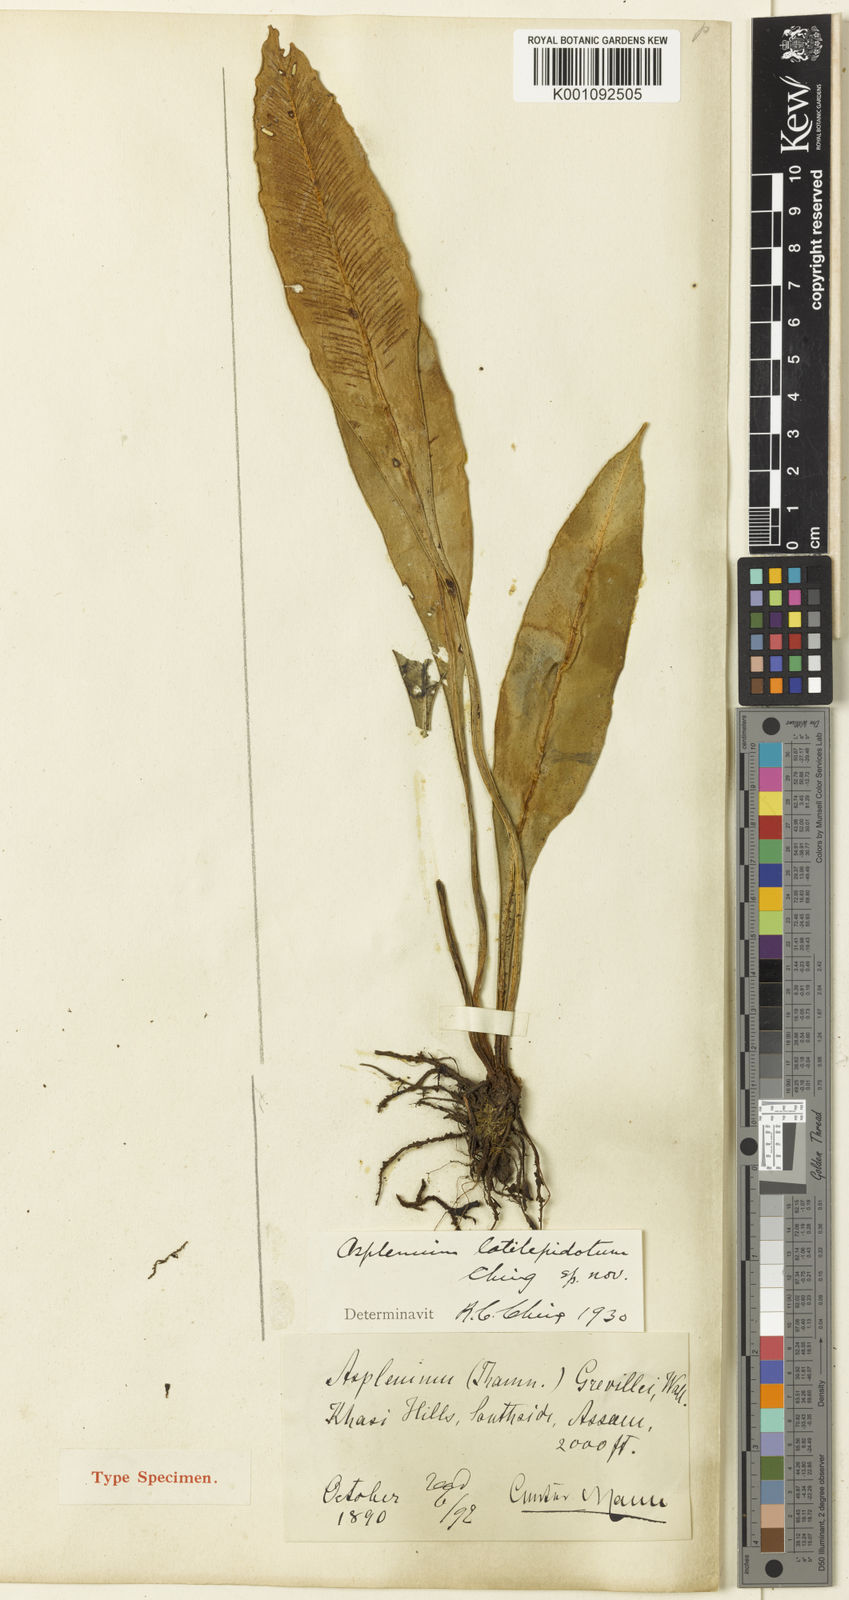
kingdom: Plantae
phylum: Tracheophyta
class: Polypodiopsida
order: Polypodiales
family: Aspleniaceae
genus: Asplenium
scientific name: Asplenium
